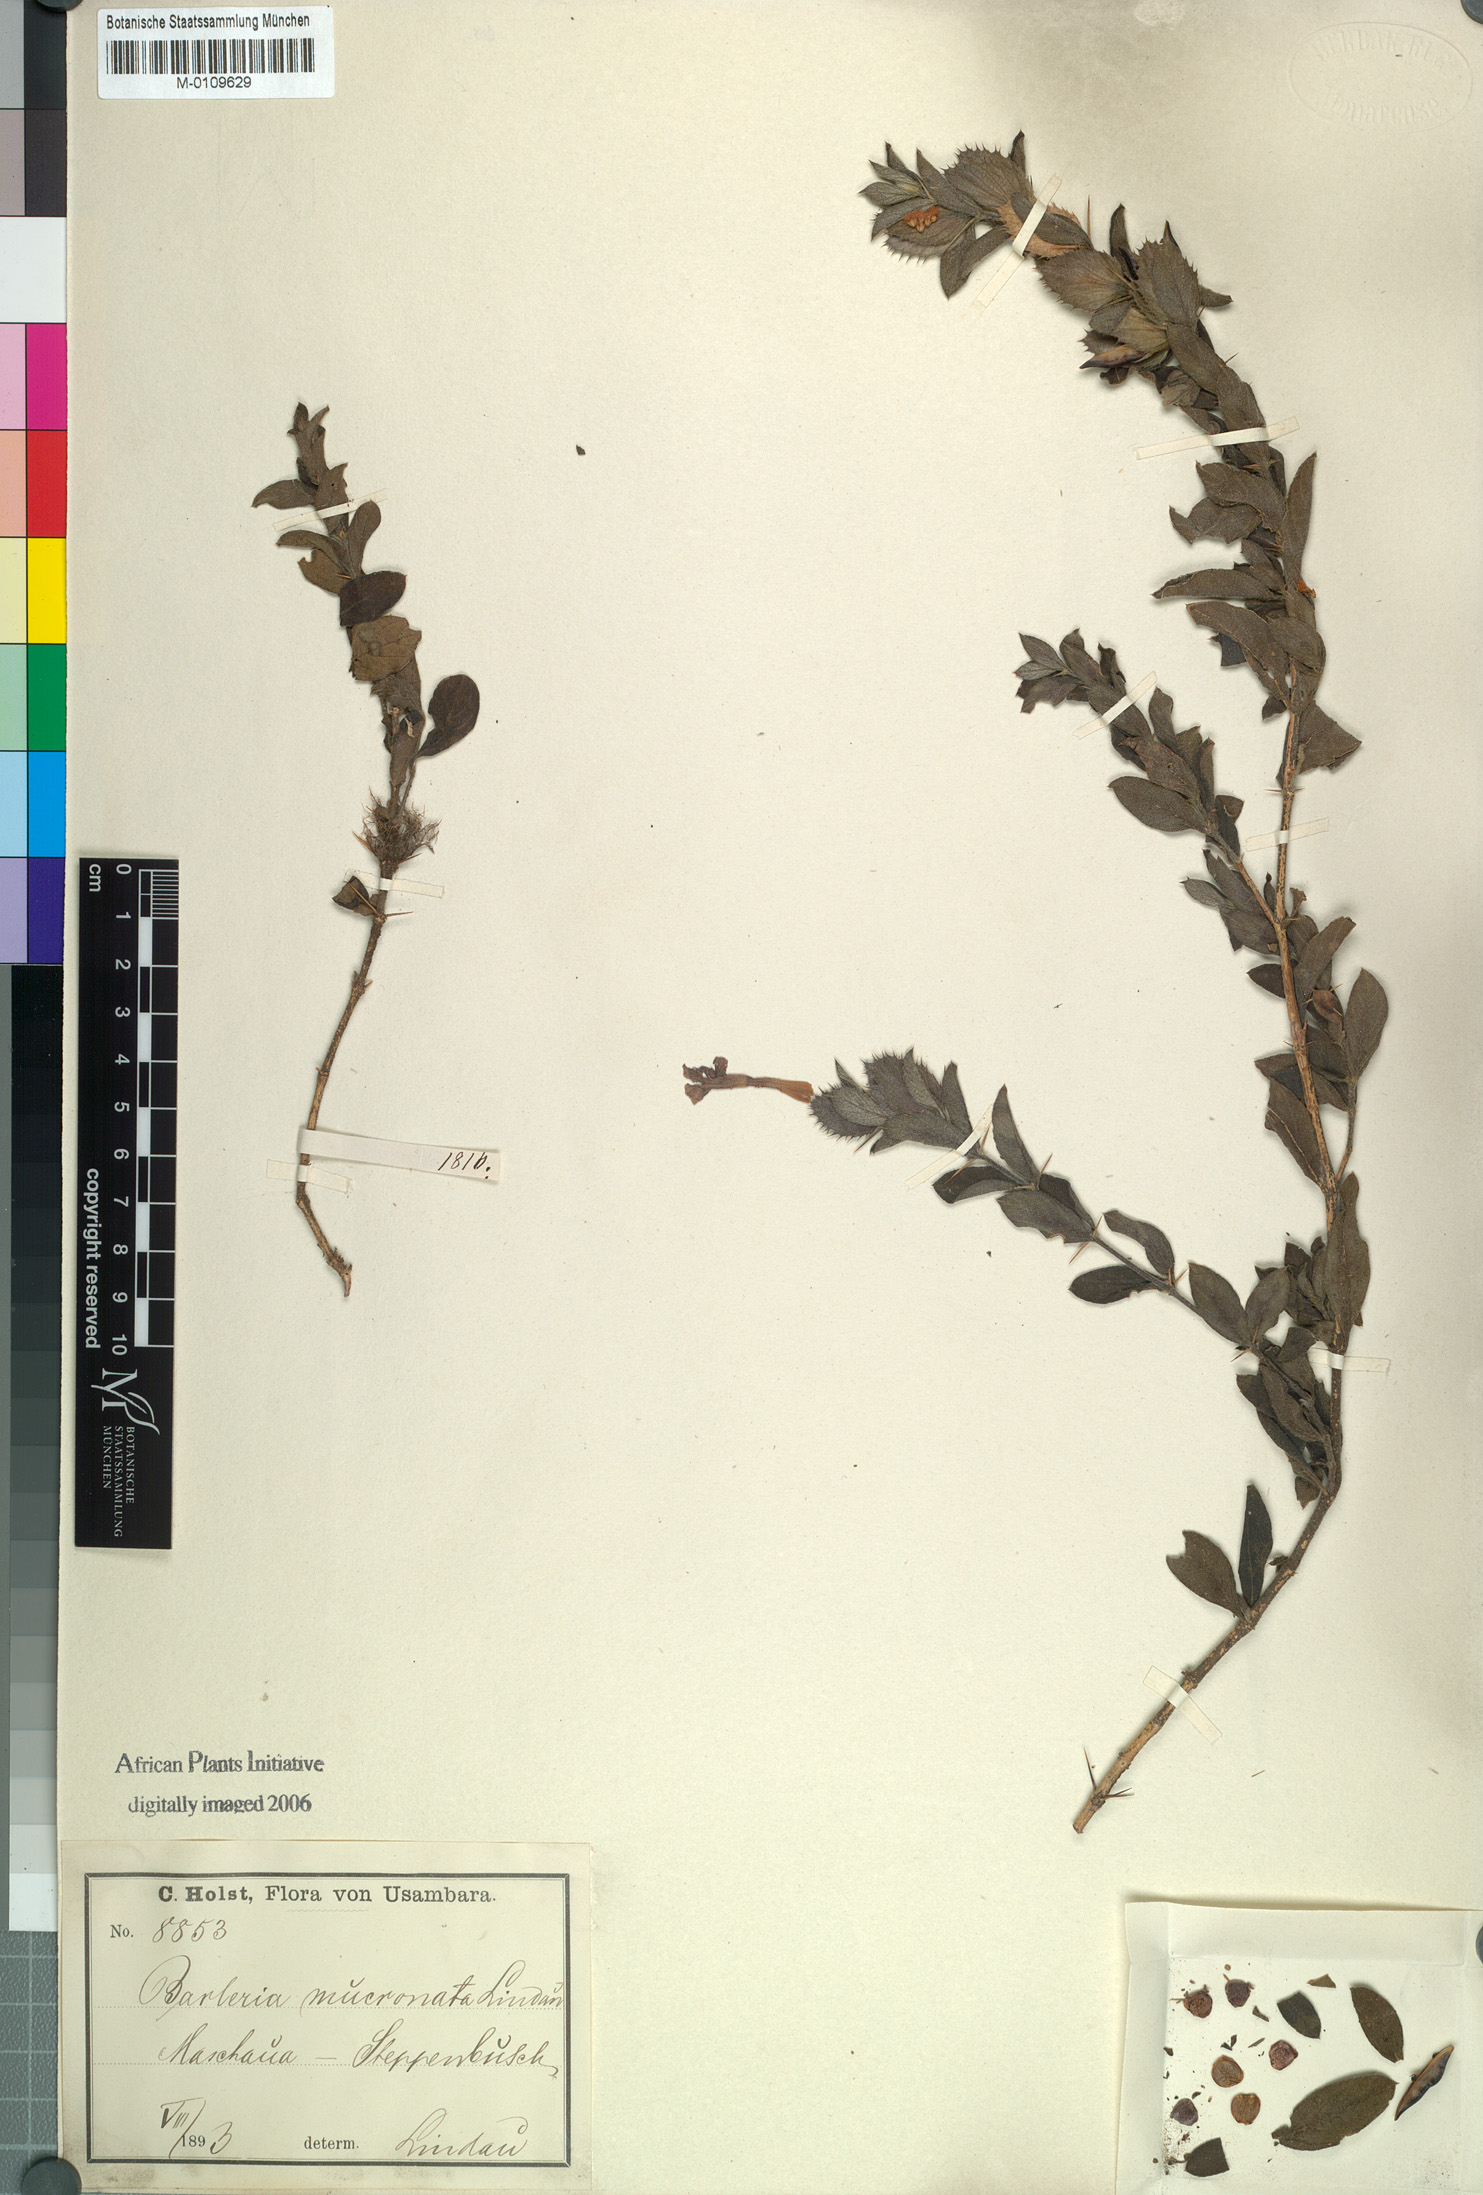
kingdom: Plantae
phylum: Tracheophyta
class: Magnoliopsida
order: Lamiales
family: Acanthaceae
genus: Barleria
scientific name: Barleria grandicalyx
